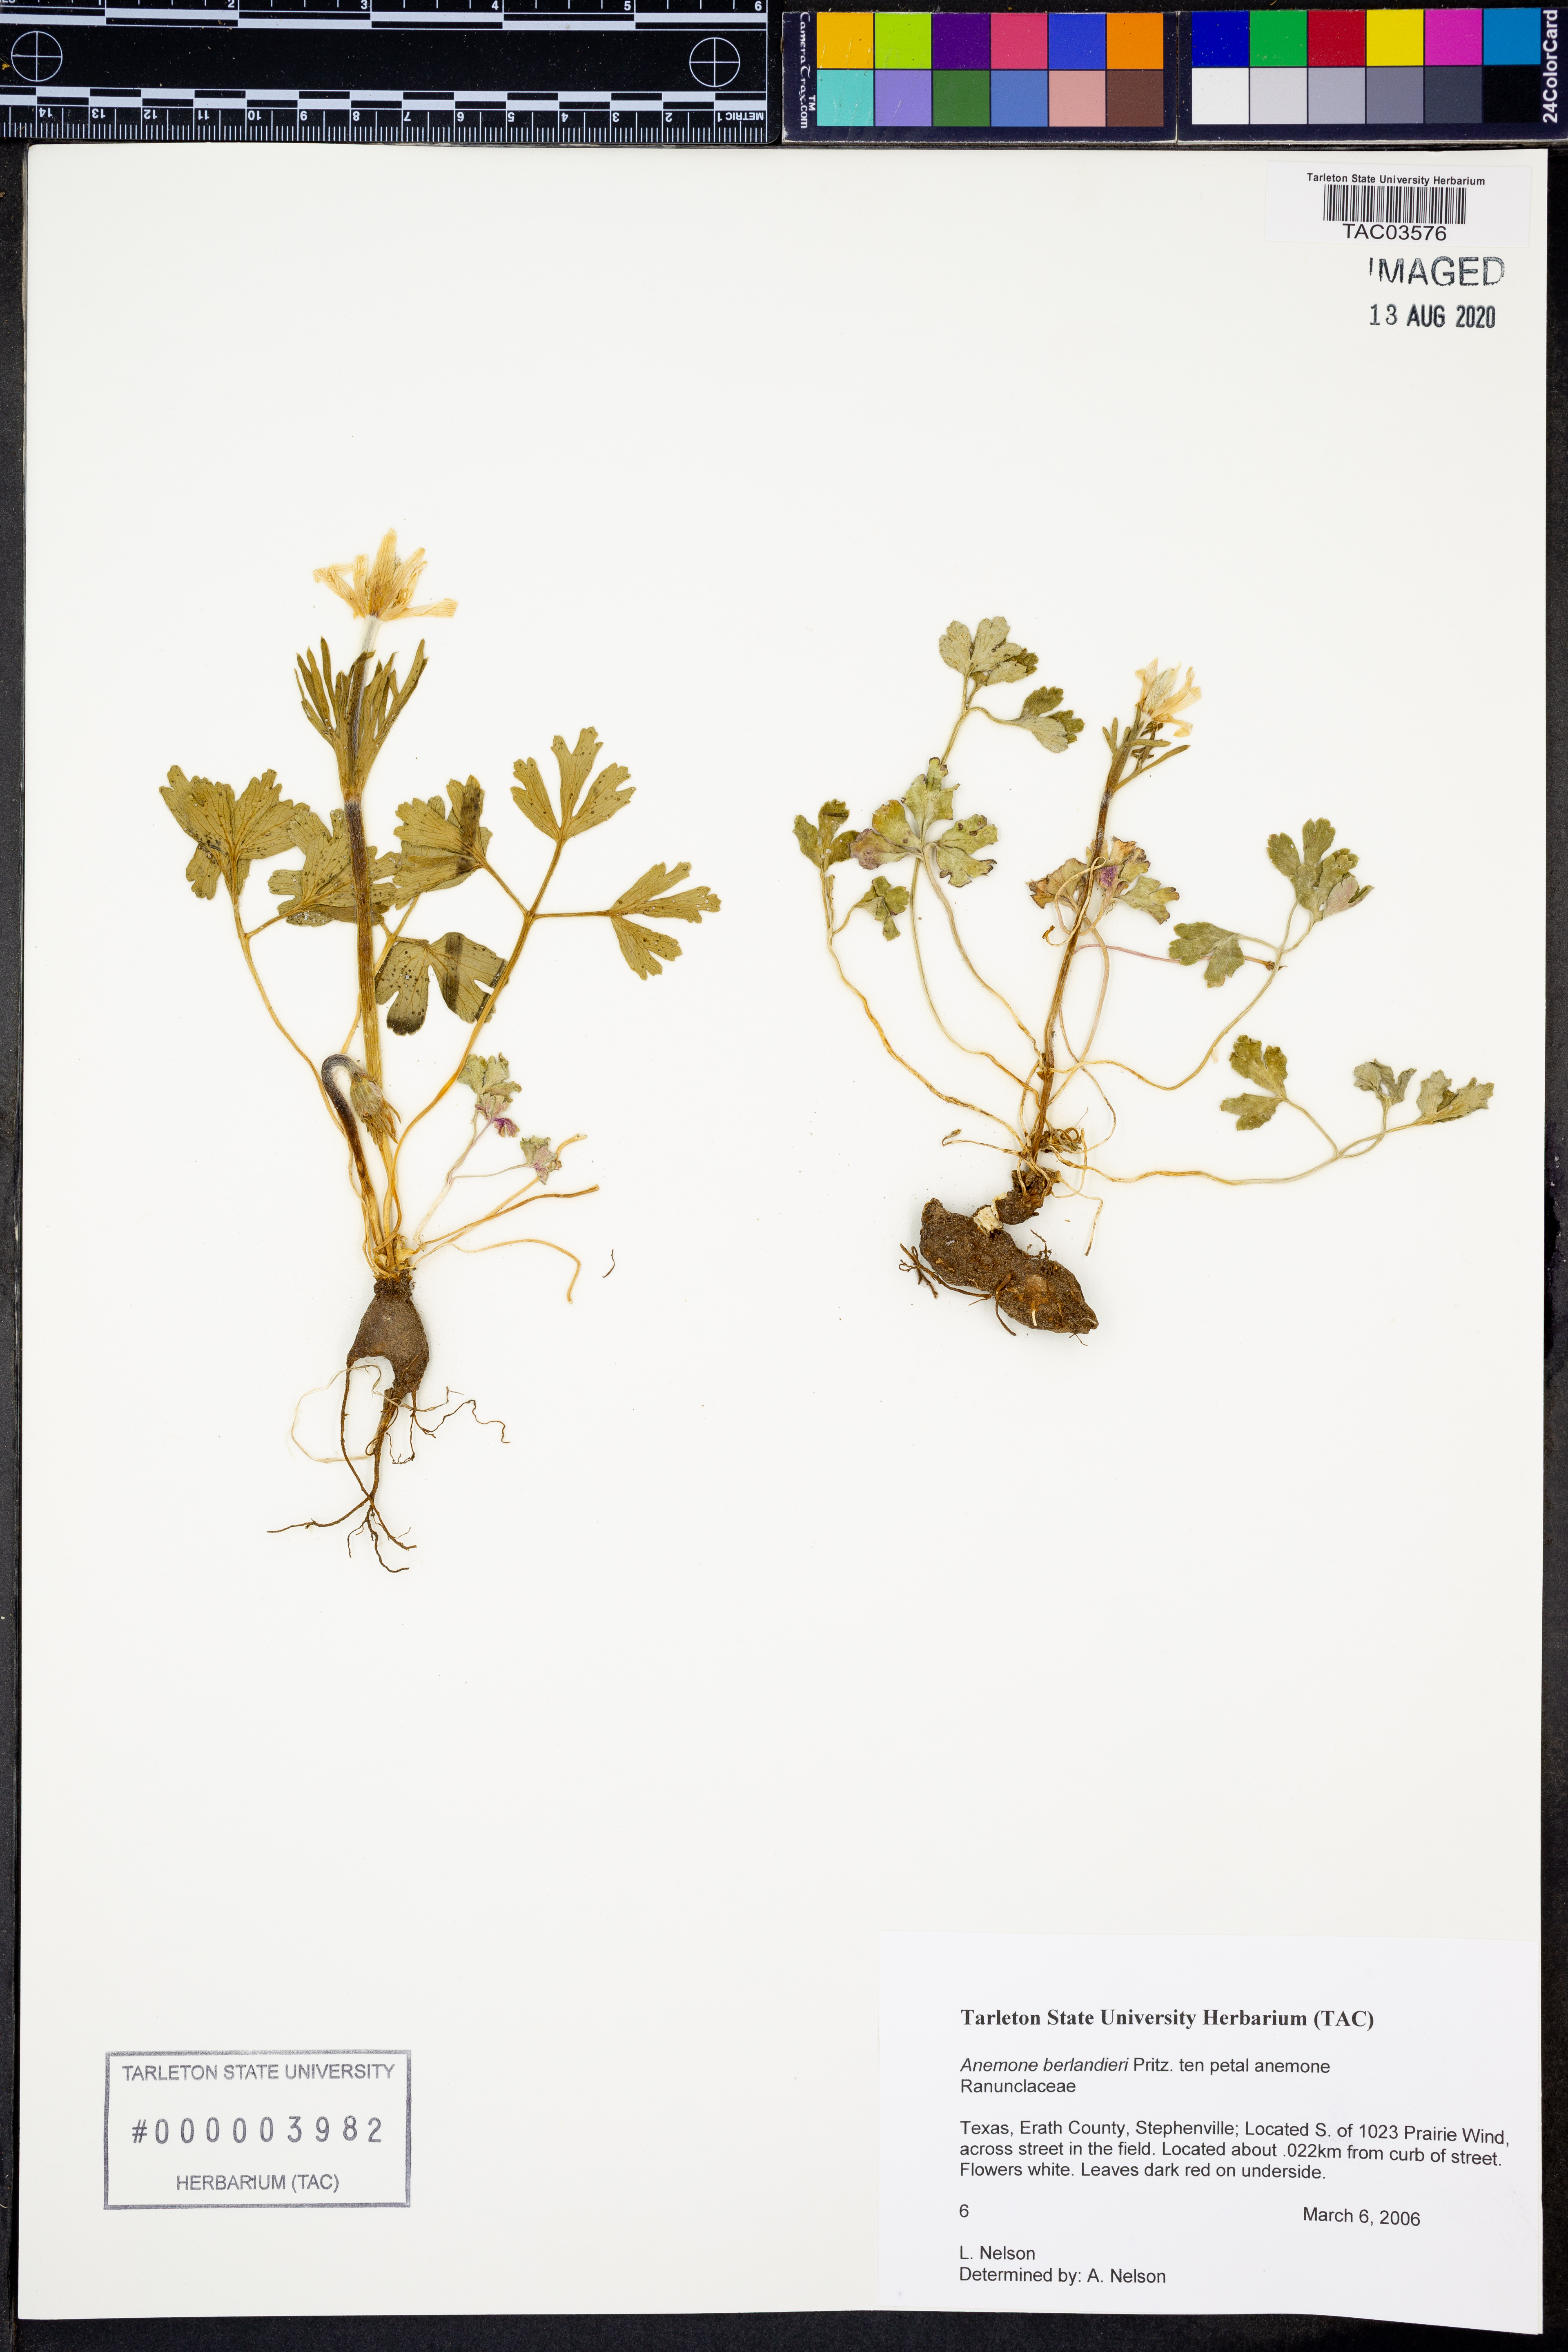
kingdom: Plantae
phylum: Tracheophyta
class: Magnoliopsida
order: Ranunculales
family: Ranunculaceae
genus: Anemone
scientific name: Anemone berlandieri
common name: Ten-petal anemone
